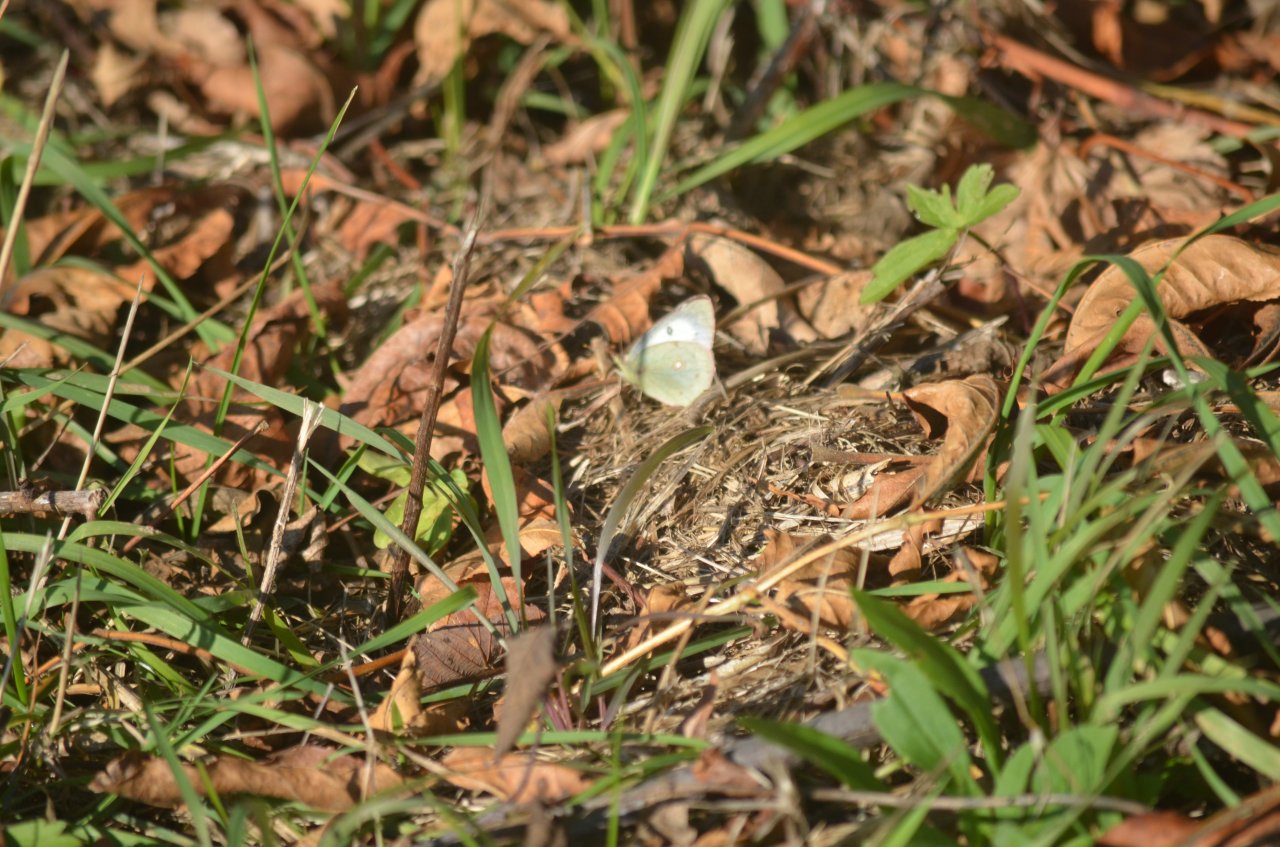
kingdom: Animalia
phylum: Arthropoda
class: Insecta
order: Lepidoptera
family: Pieridae
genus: Colias
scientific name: Colias philodice
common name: Clouded Sulphur
